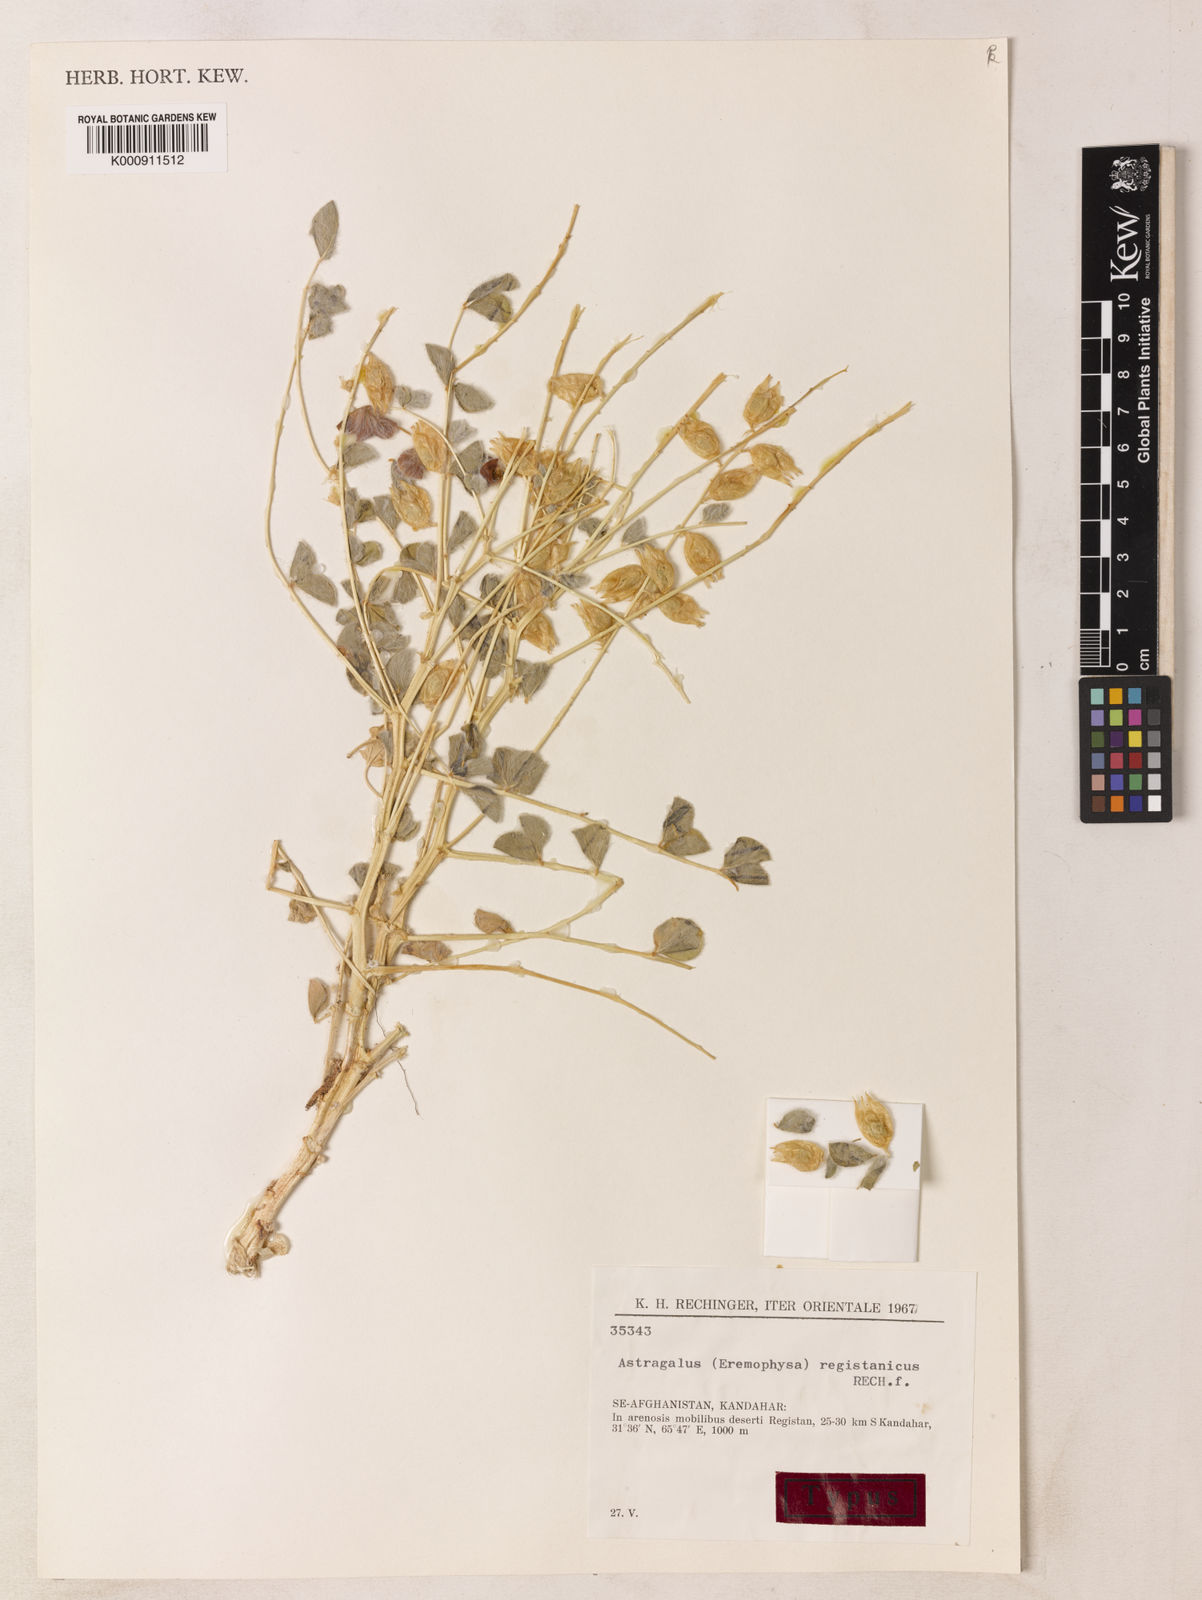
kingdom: Plantae
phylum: Tracheophyta
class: Magnoliopsida
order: Fabales
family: Fabaceae
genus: Astragalus
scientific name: Astragalus chiwensis
